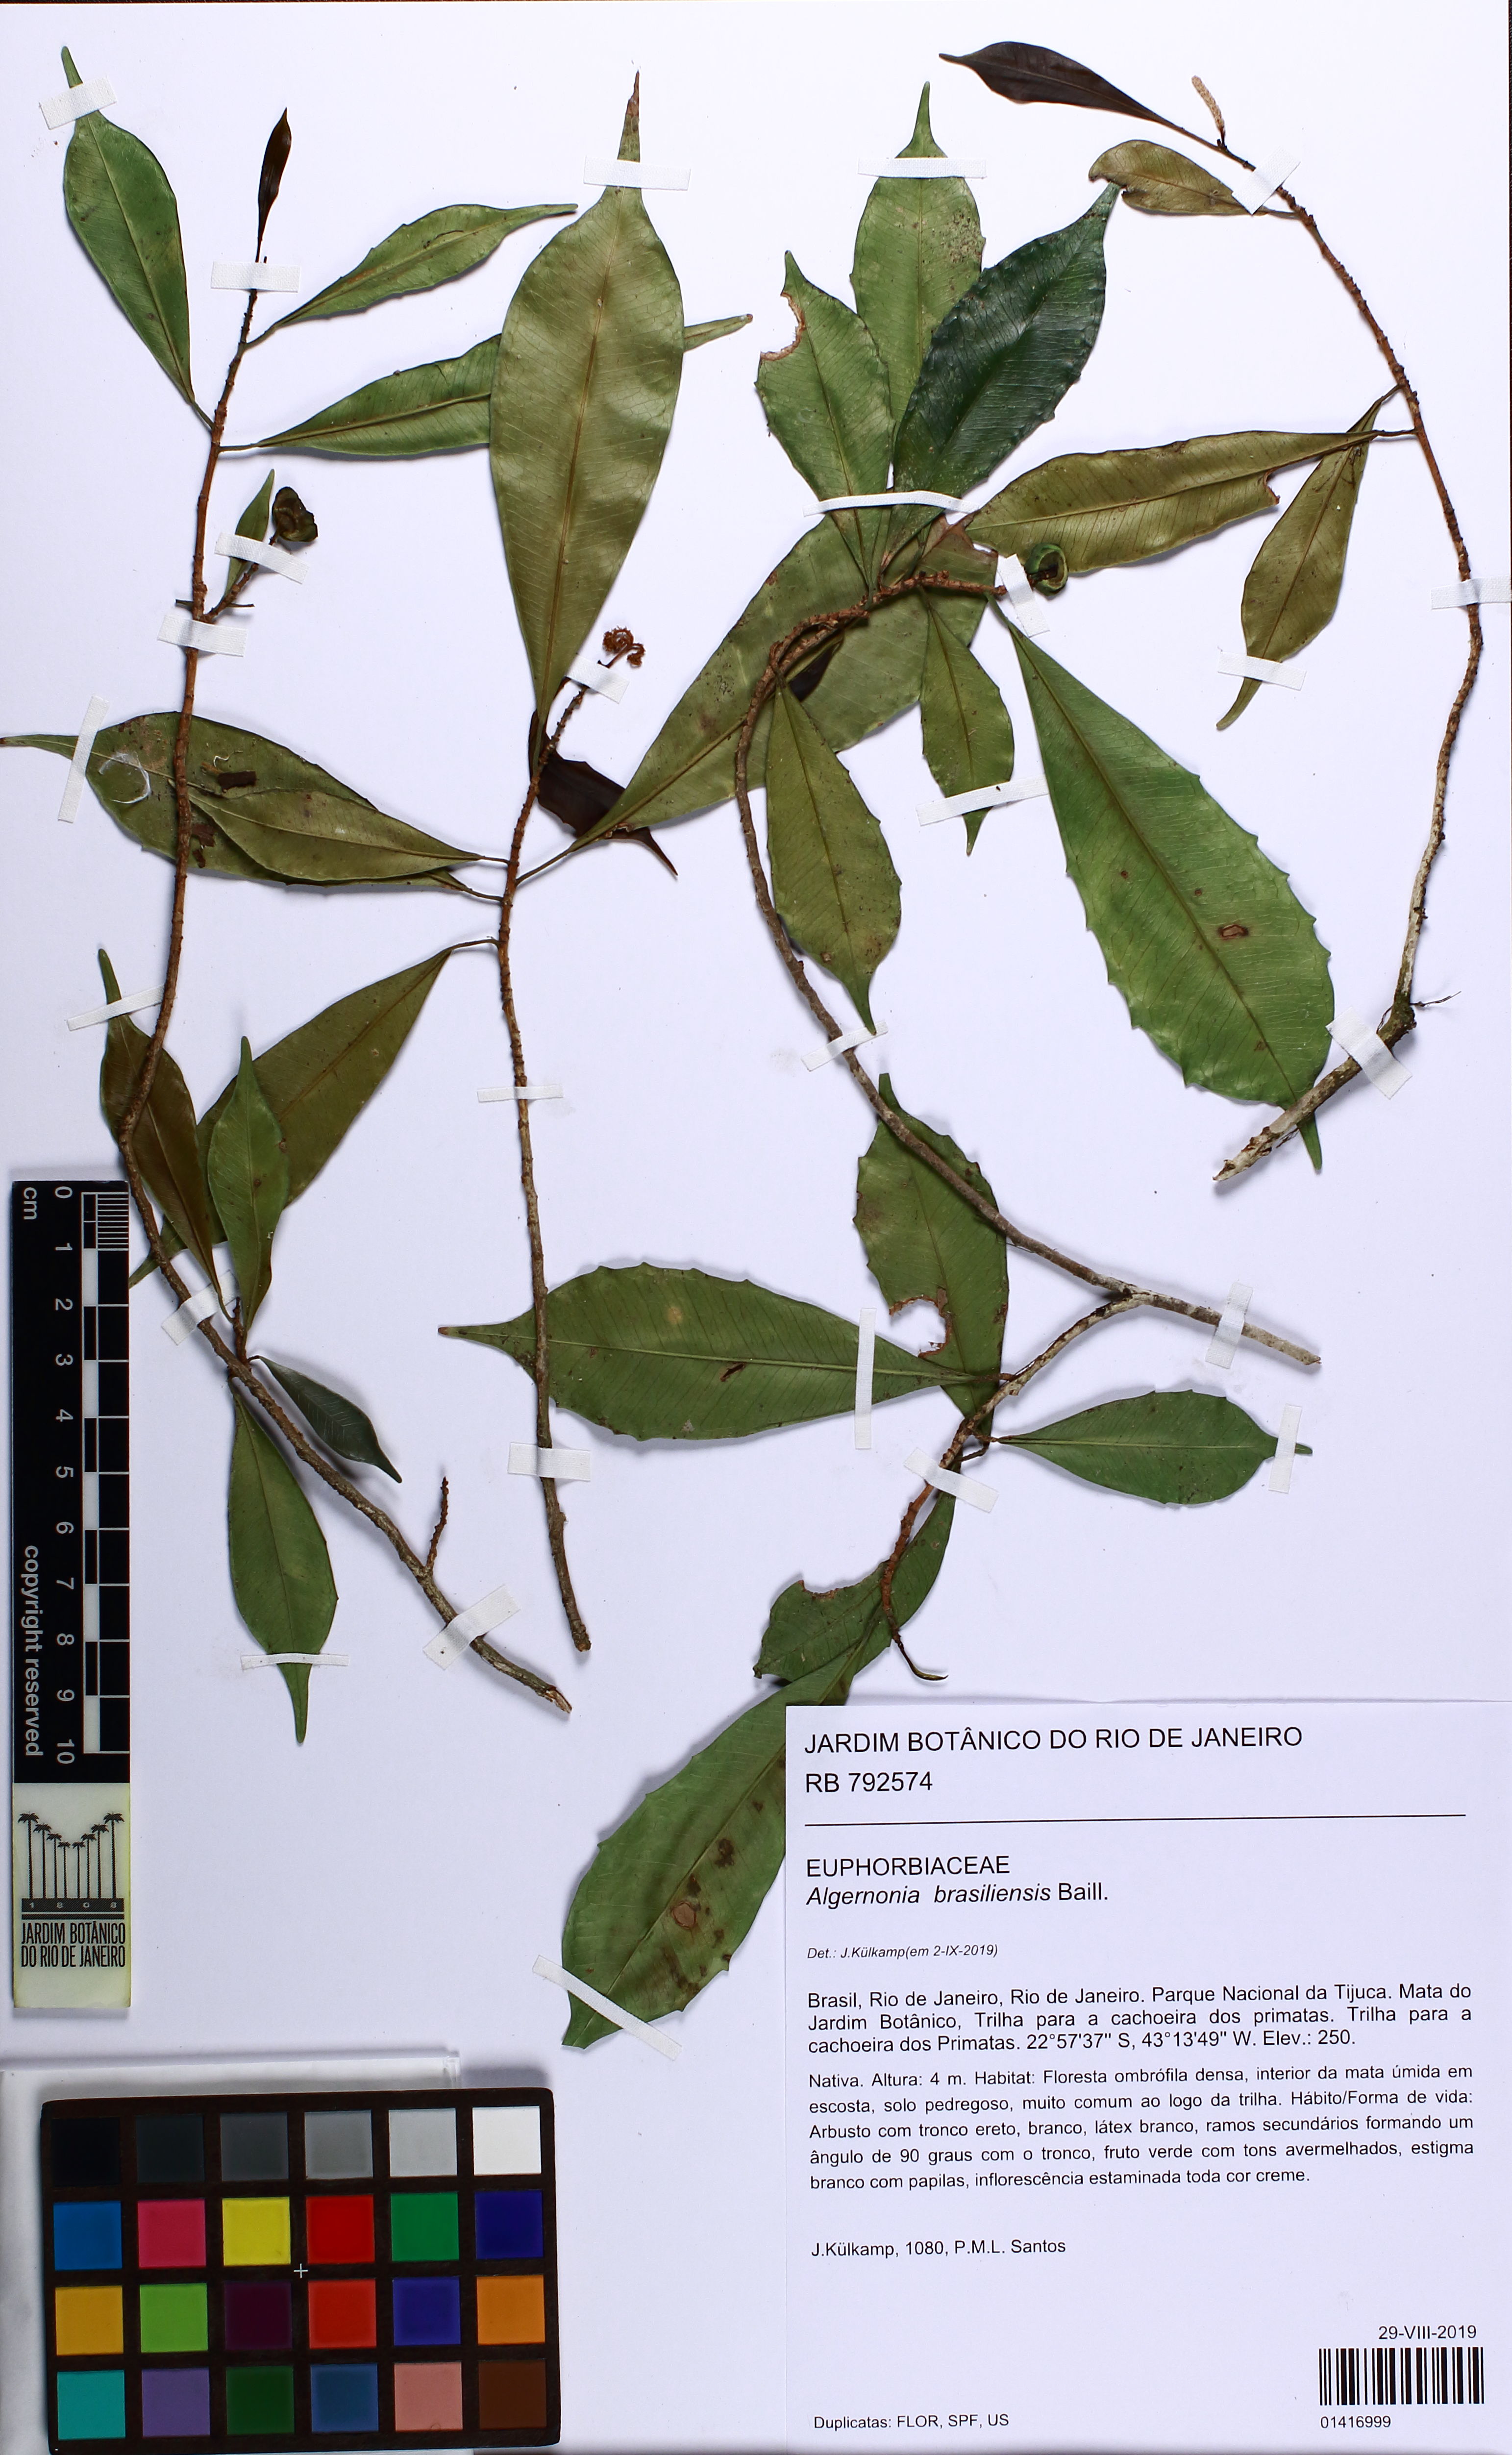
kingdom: Plantae
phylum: Tracheophyta
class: Magnoliopsida
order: Malpighiales
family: Euphorbiaceae
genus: Algernonia
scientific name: Algernonia brasiliensis
